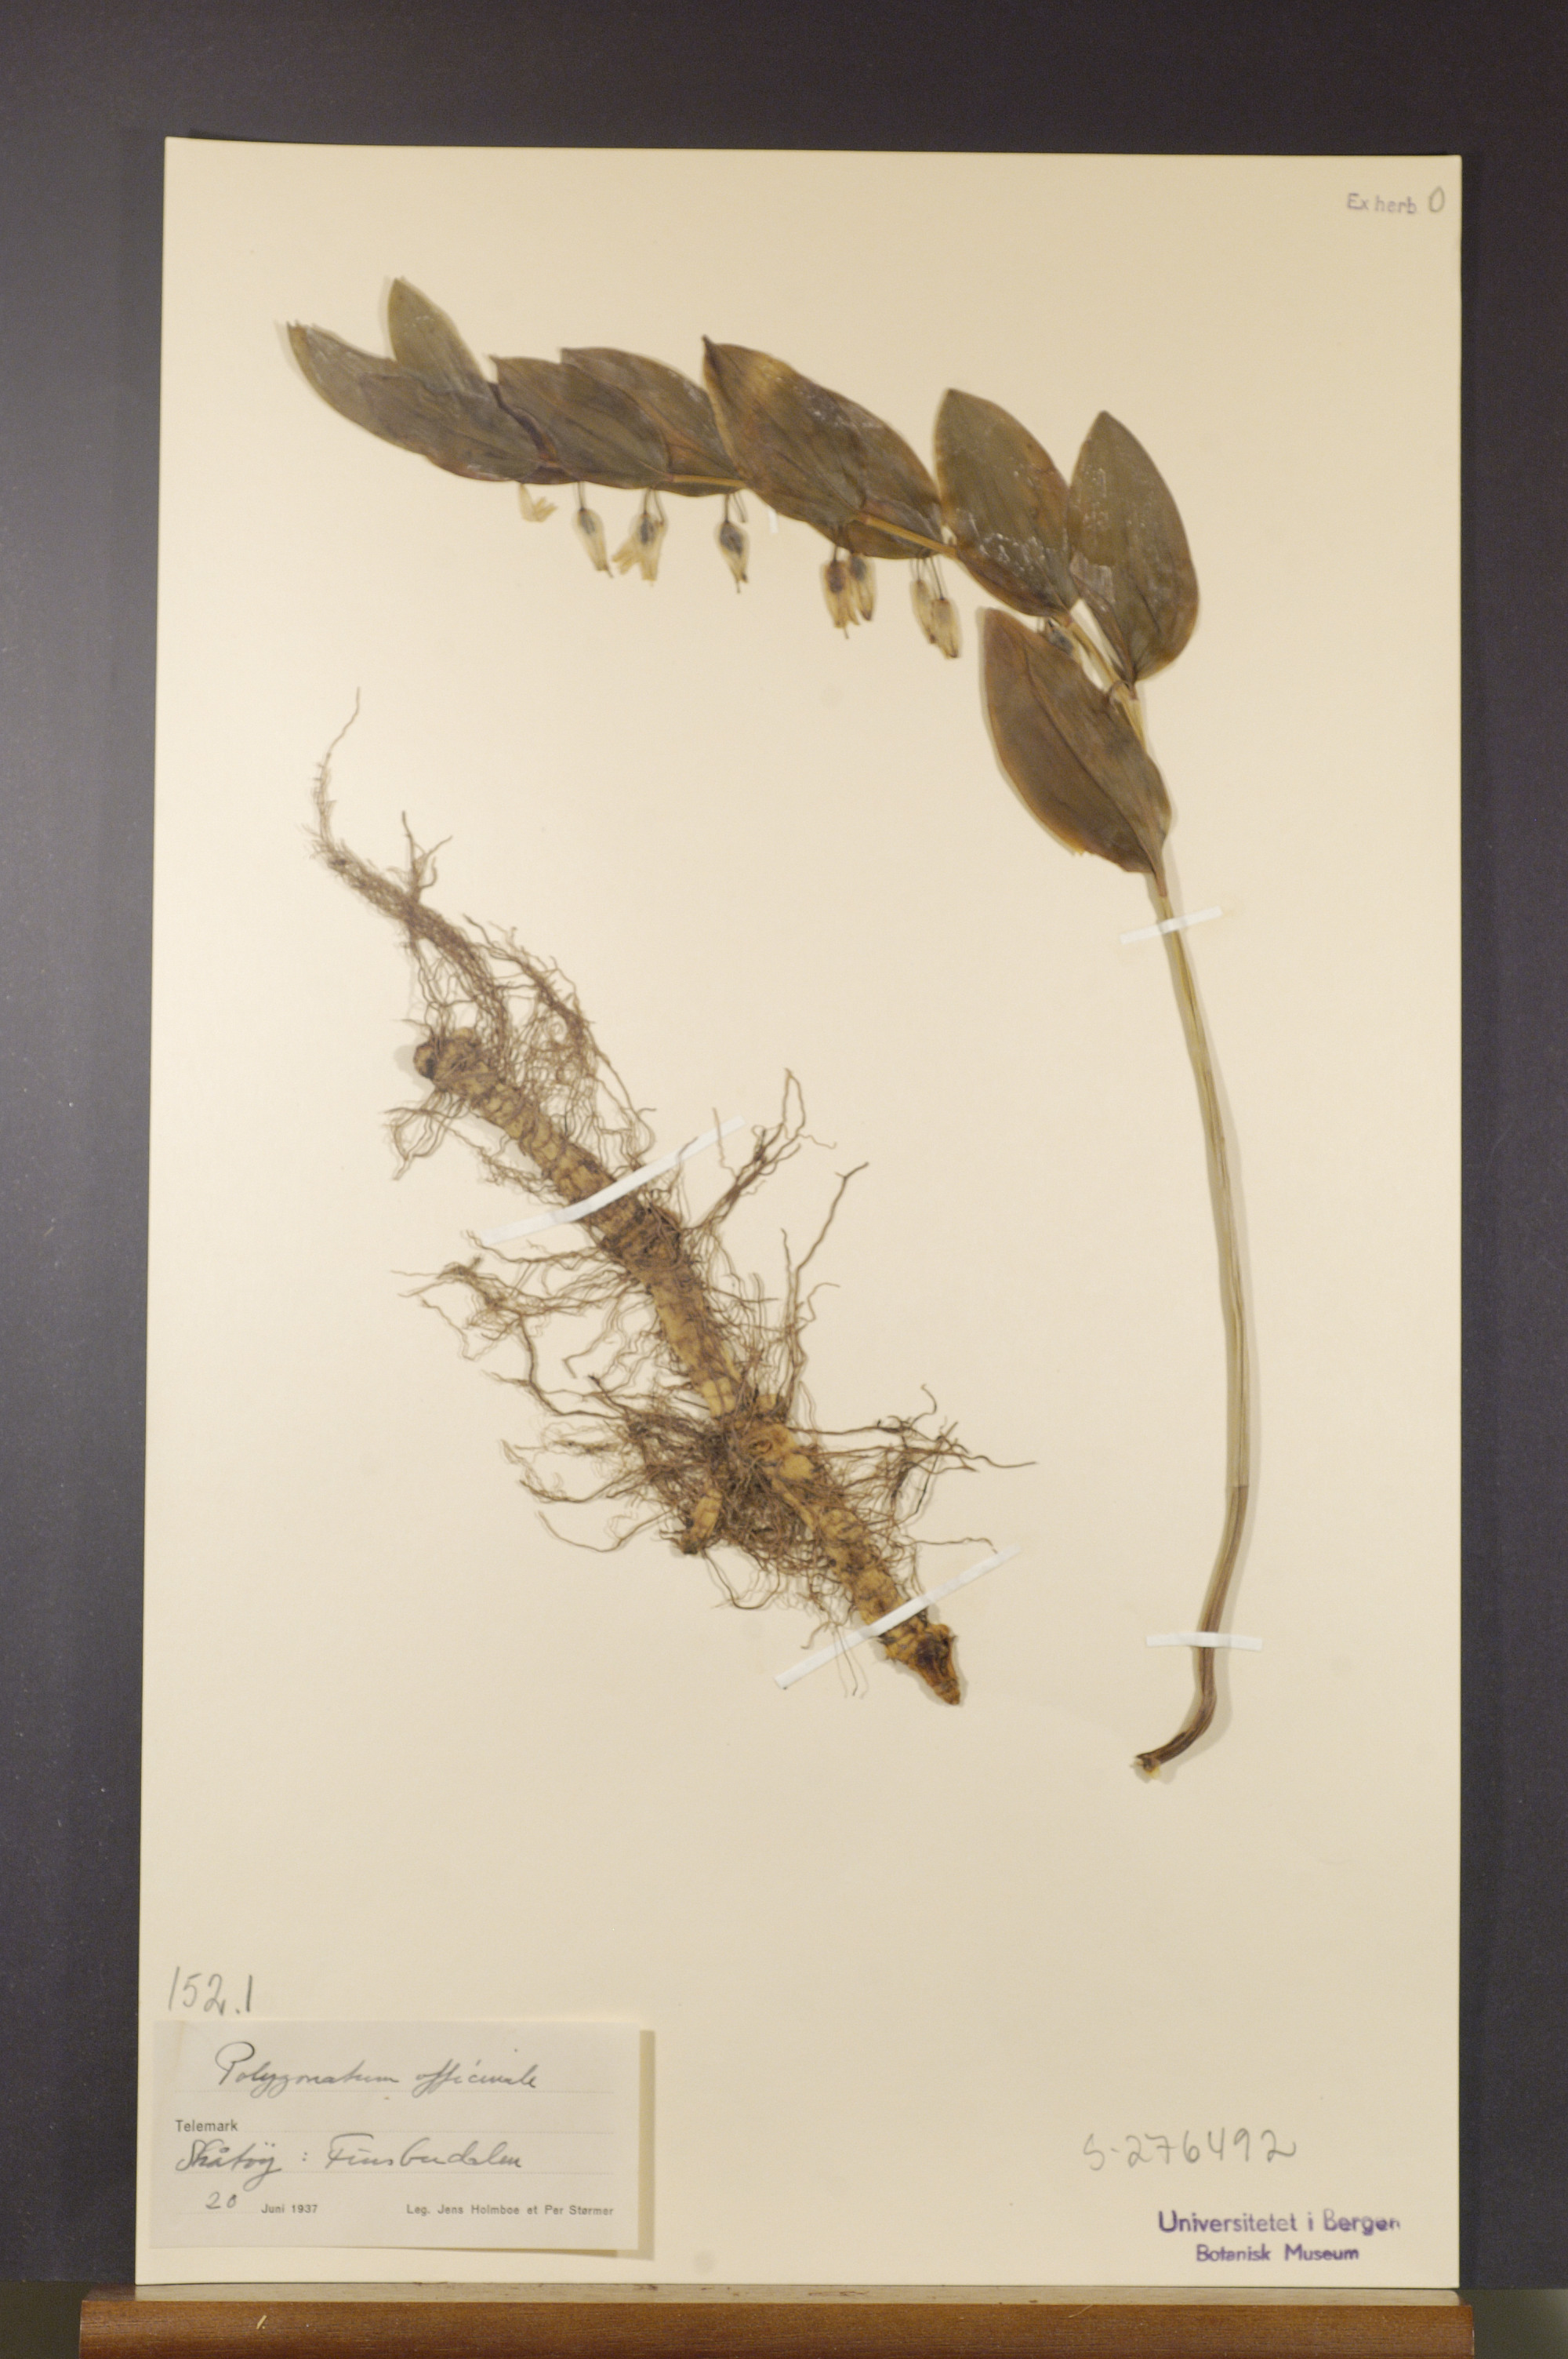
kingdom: Plantae
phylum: Tracheophyta
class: Liliopsida
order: Asparagales
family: Asparagaceae
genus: Polygonatum
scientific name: Polygonatum odoratum
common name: Angular solomon's-seal
